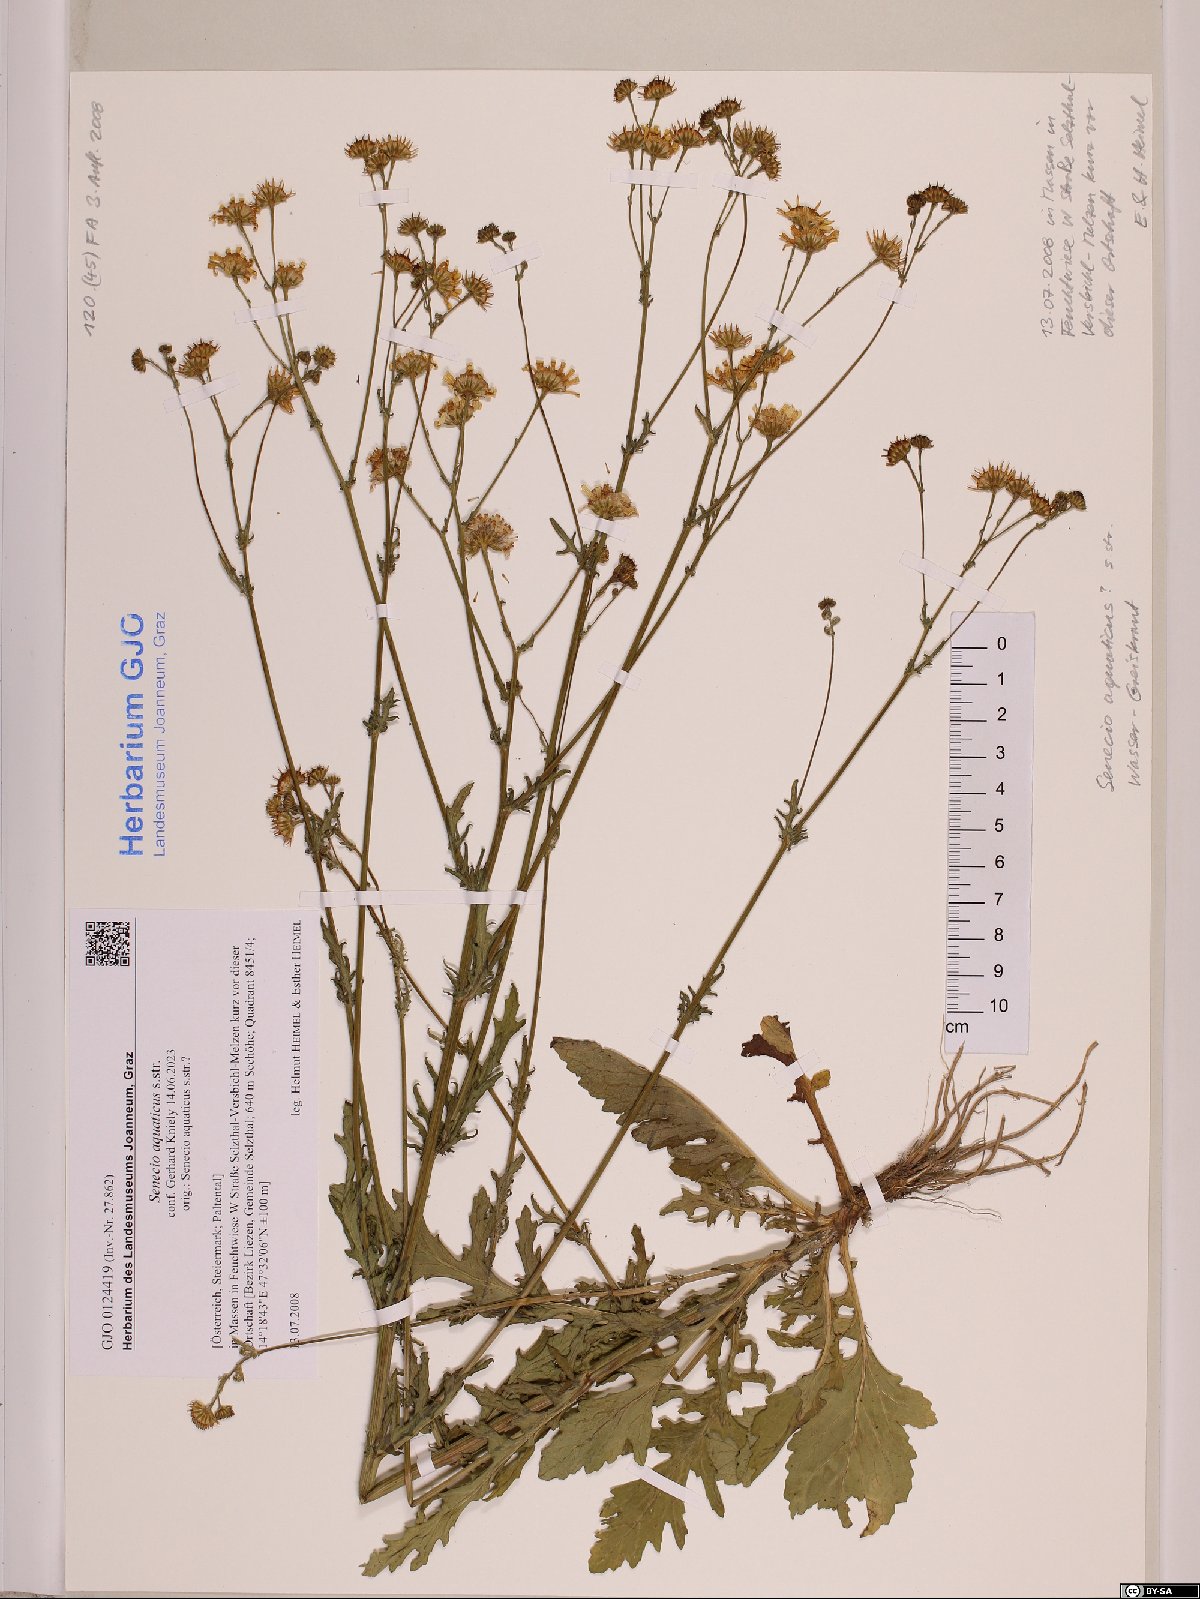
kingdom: Plantae
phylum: Tracheophyta
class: Magnoliopsida
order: Asterales
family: Asteraceae
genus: Jacobaea
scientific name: Jacobaea aquatica
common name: Water ragwort
